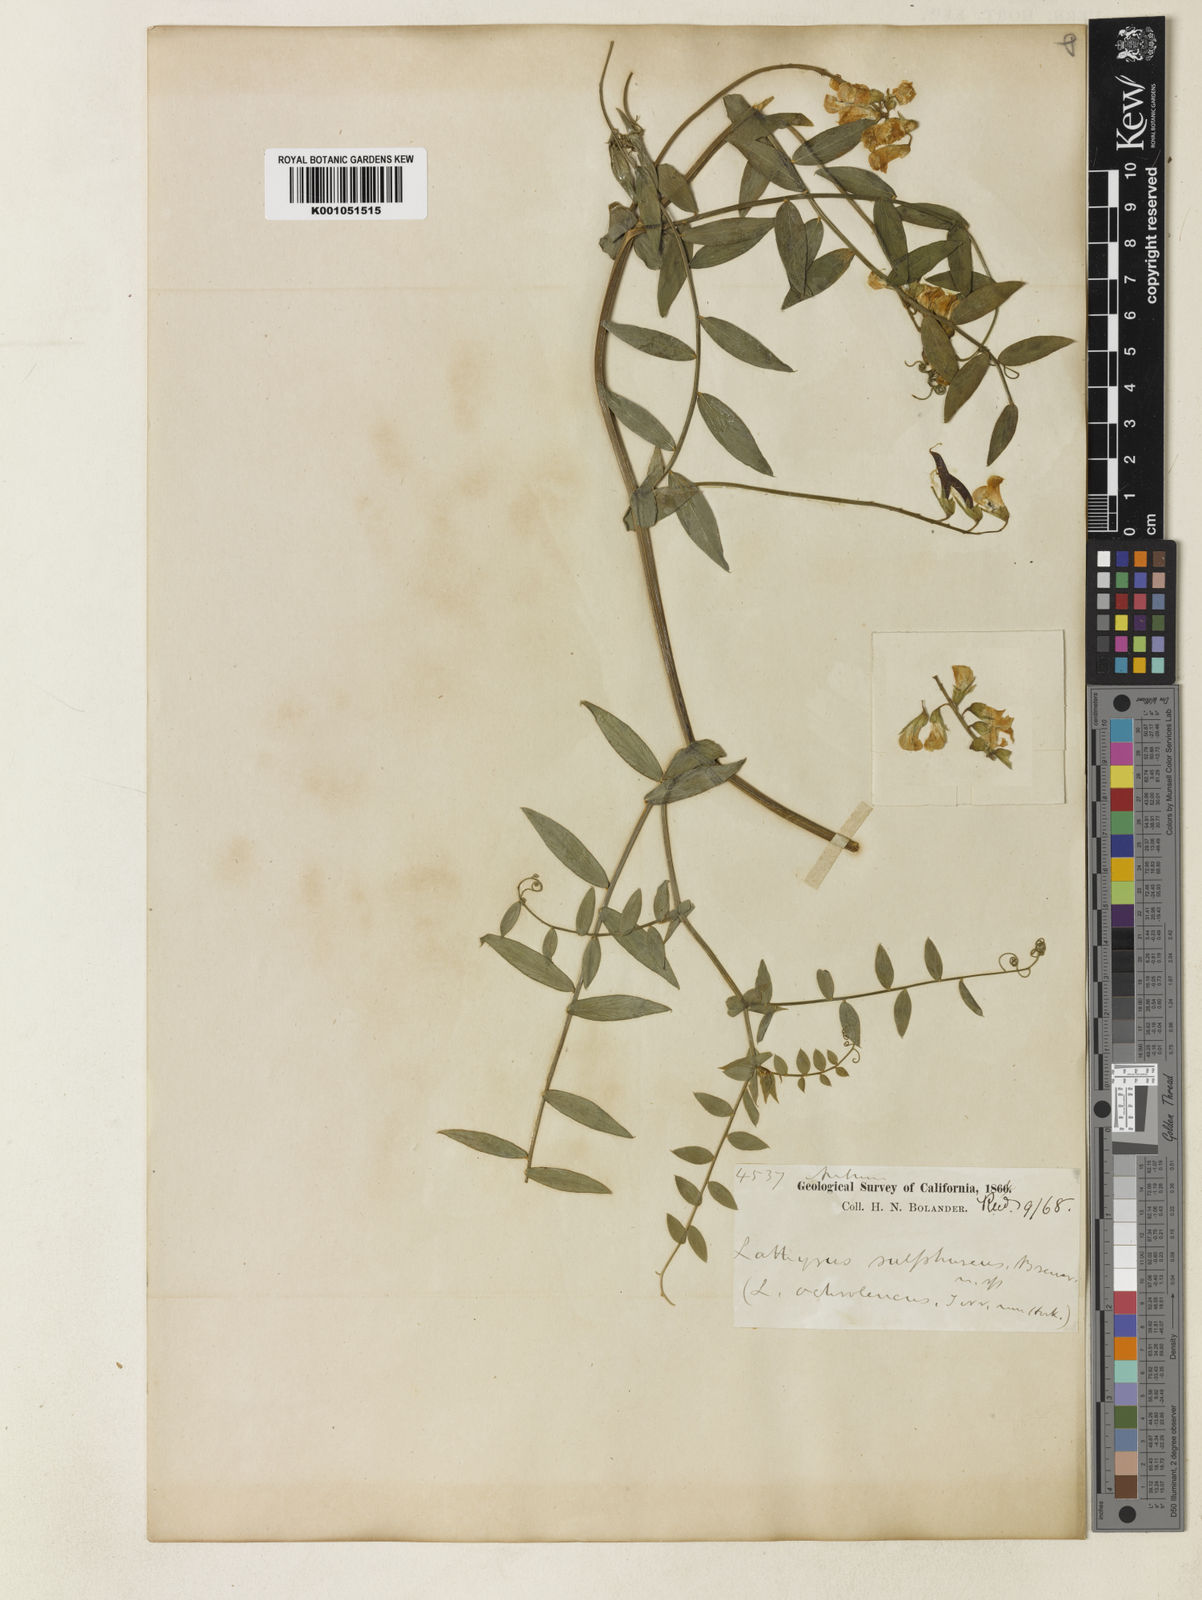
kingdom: Plantae
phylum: Tracheophyta
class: Magnoliopsida
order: Fabales
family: Fabaceae
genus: Lathyrus
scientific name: Lathyrus sulphureus
